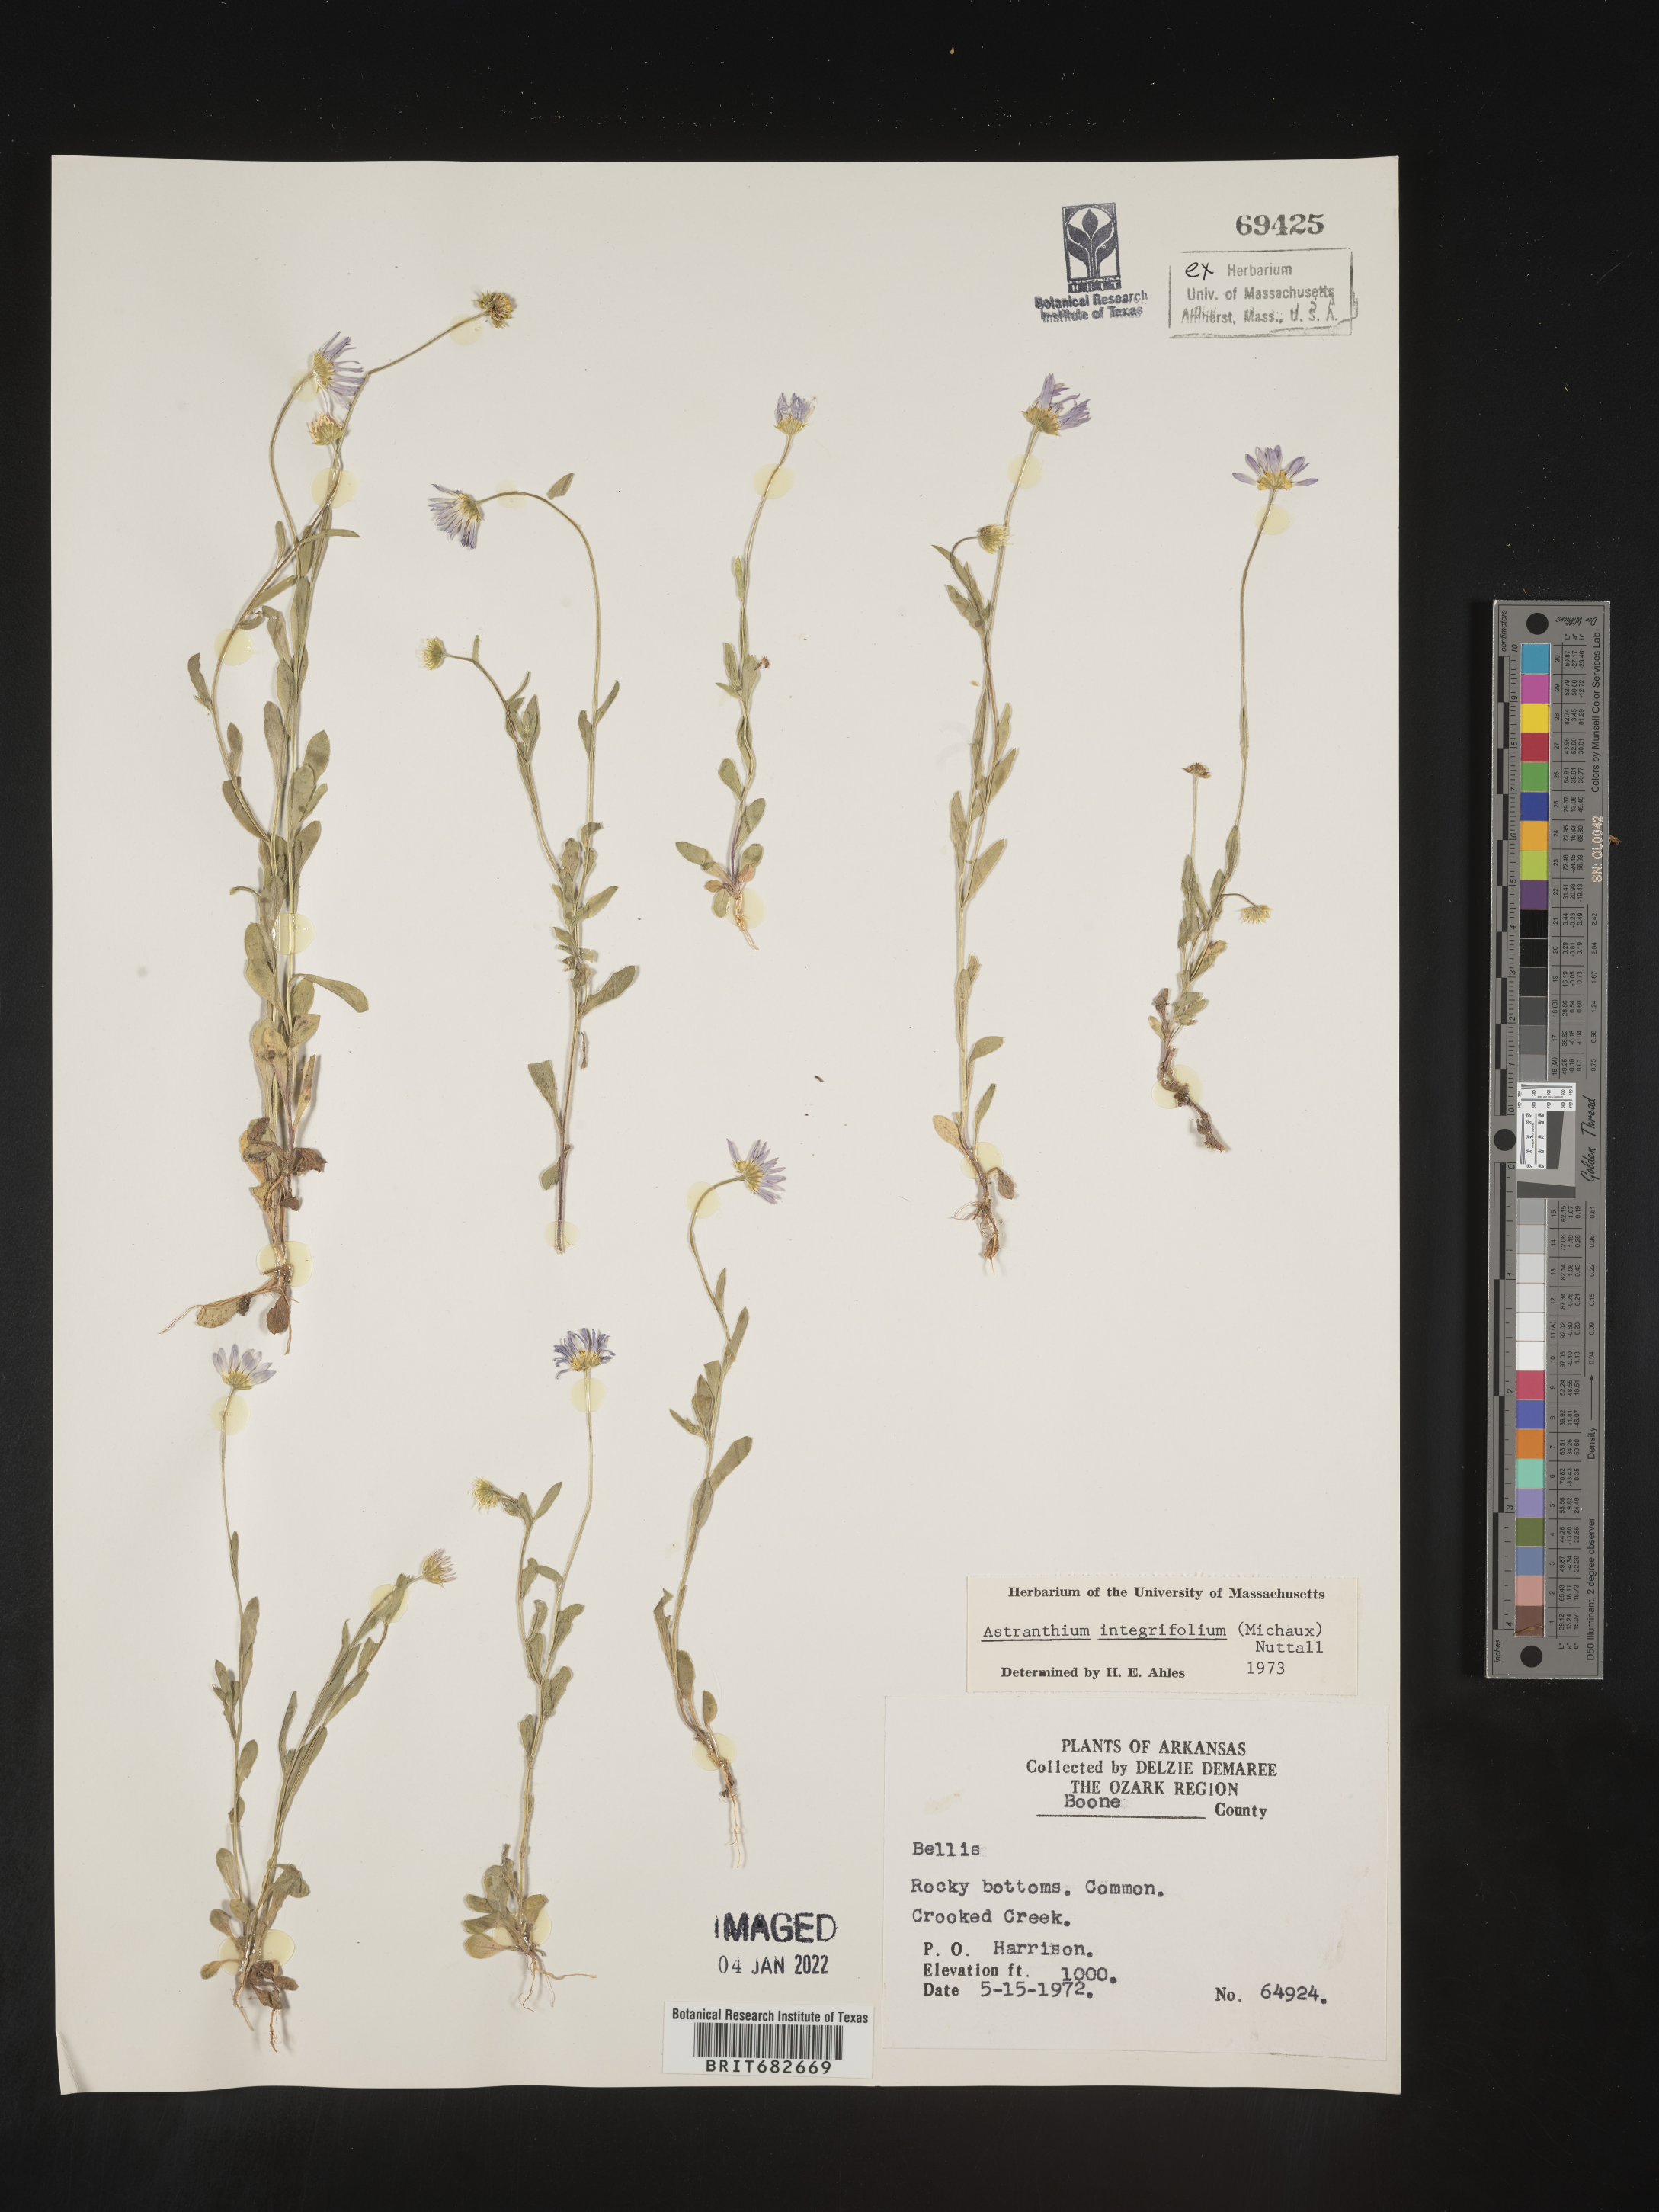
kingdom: Plantae
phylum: Tracheophyta
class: Magnoliopsida
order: Asterales
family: Asteraceae
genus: Astranthium
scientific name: Astranthium integrifolium
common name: Western daisy
